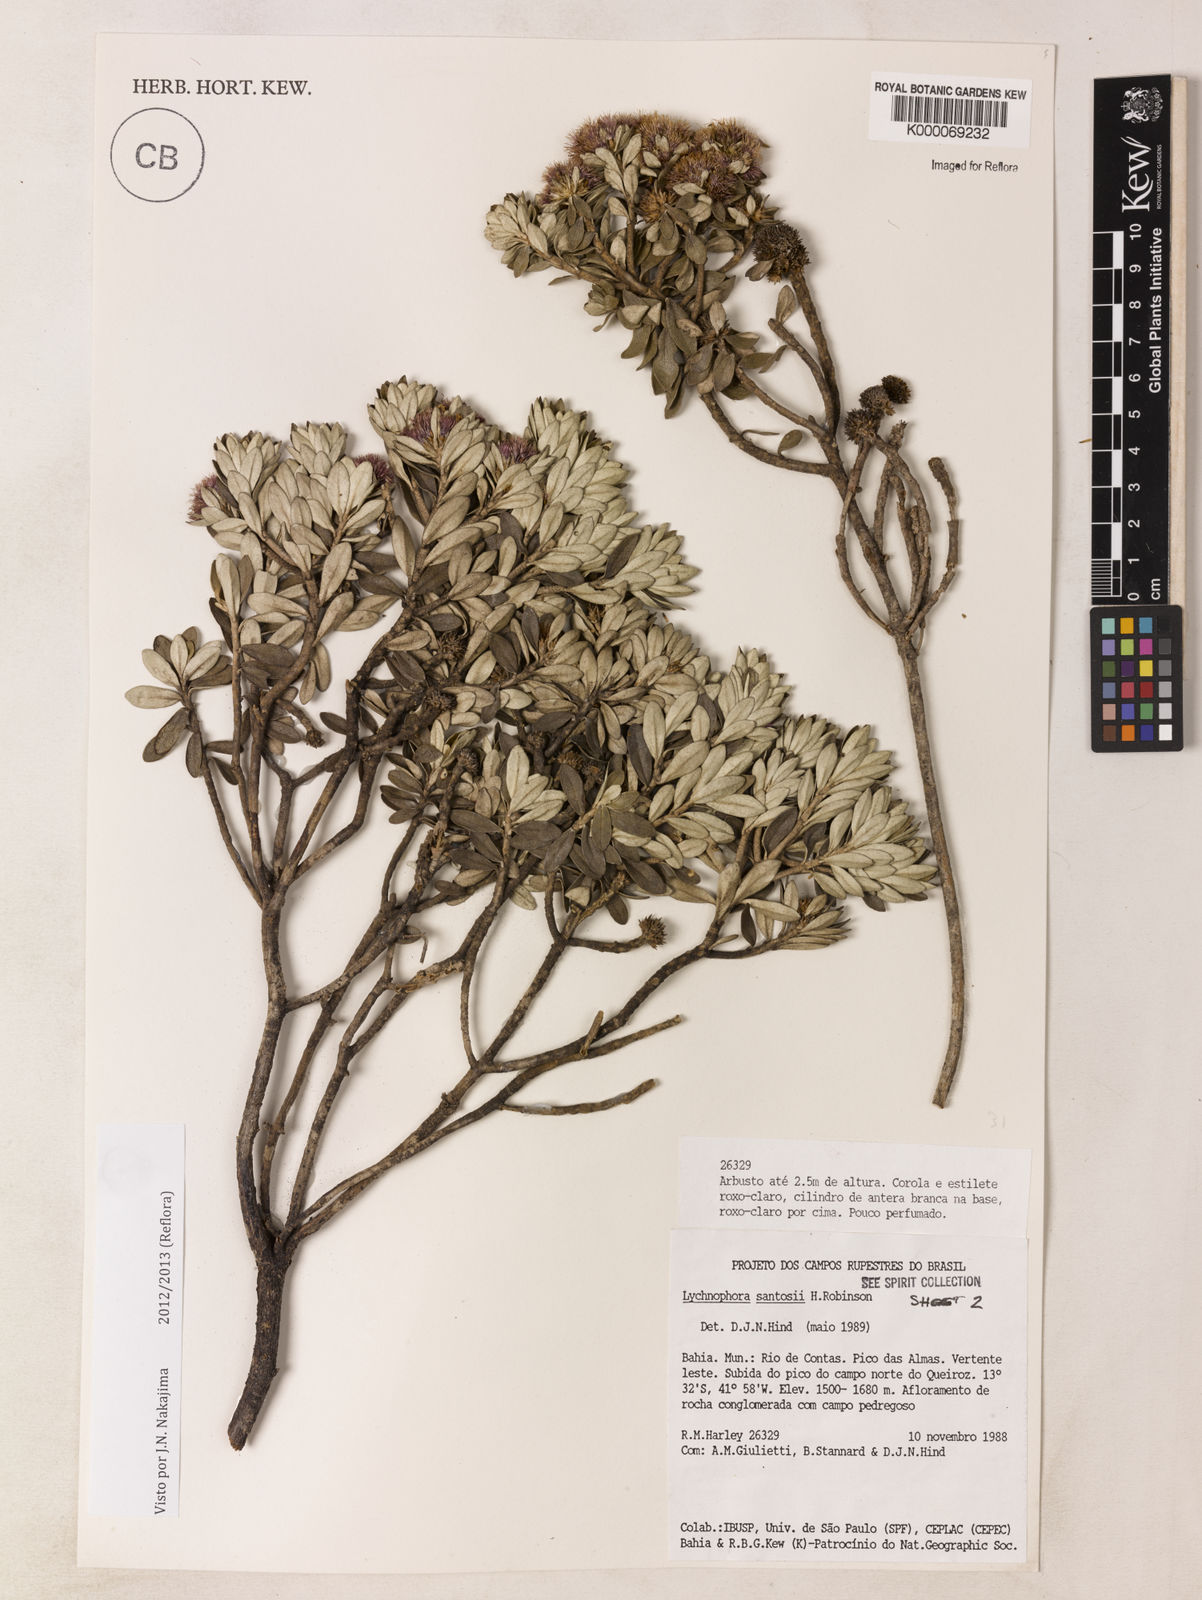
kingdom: Plantae
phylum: Tracheophyta
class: Magnoliopsida
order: Asterales
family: Asteraceae
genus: Lychnophorella
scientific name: Lychnophorella santosii
